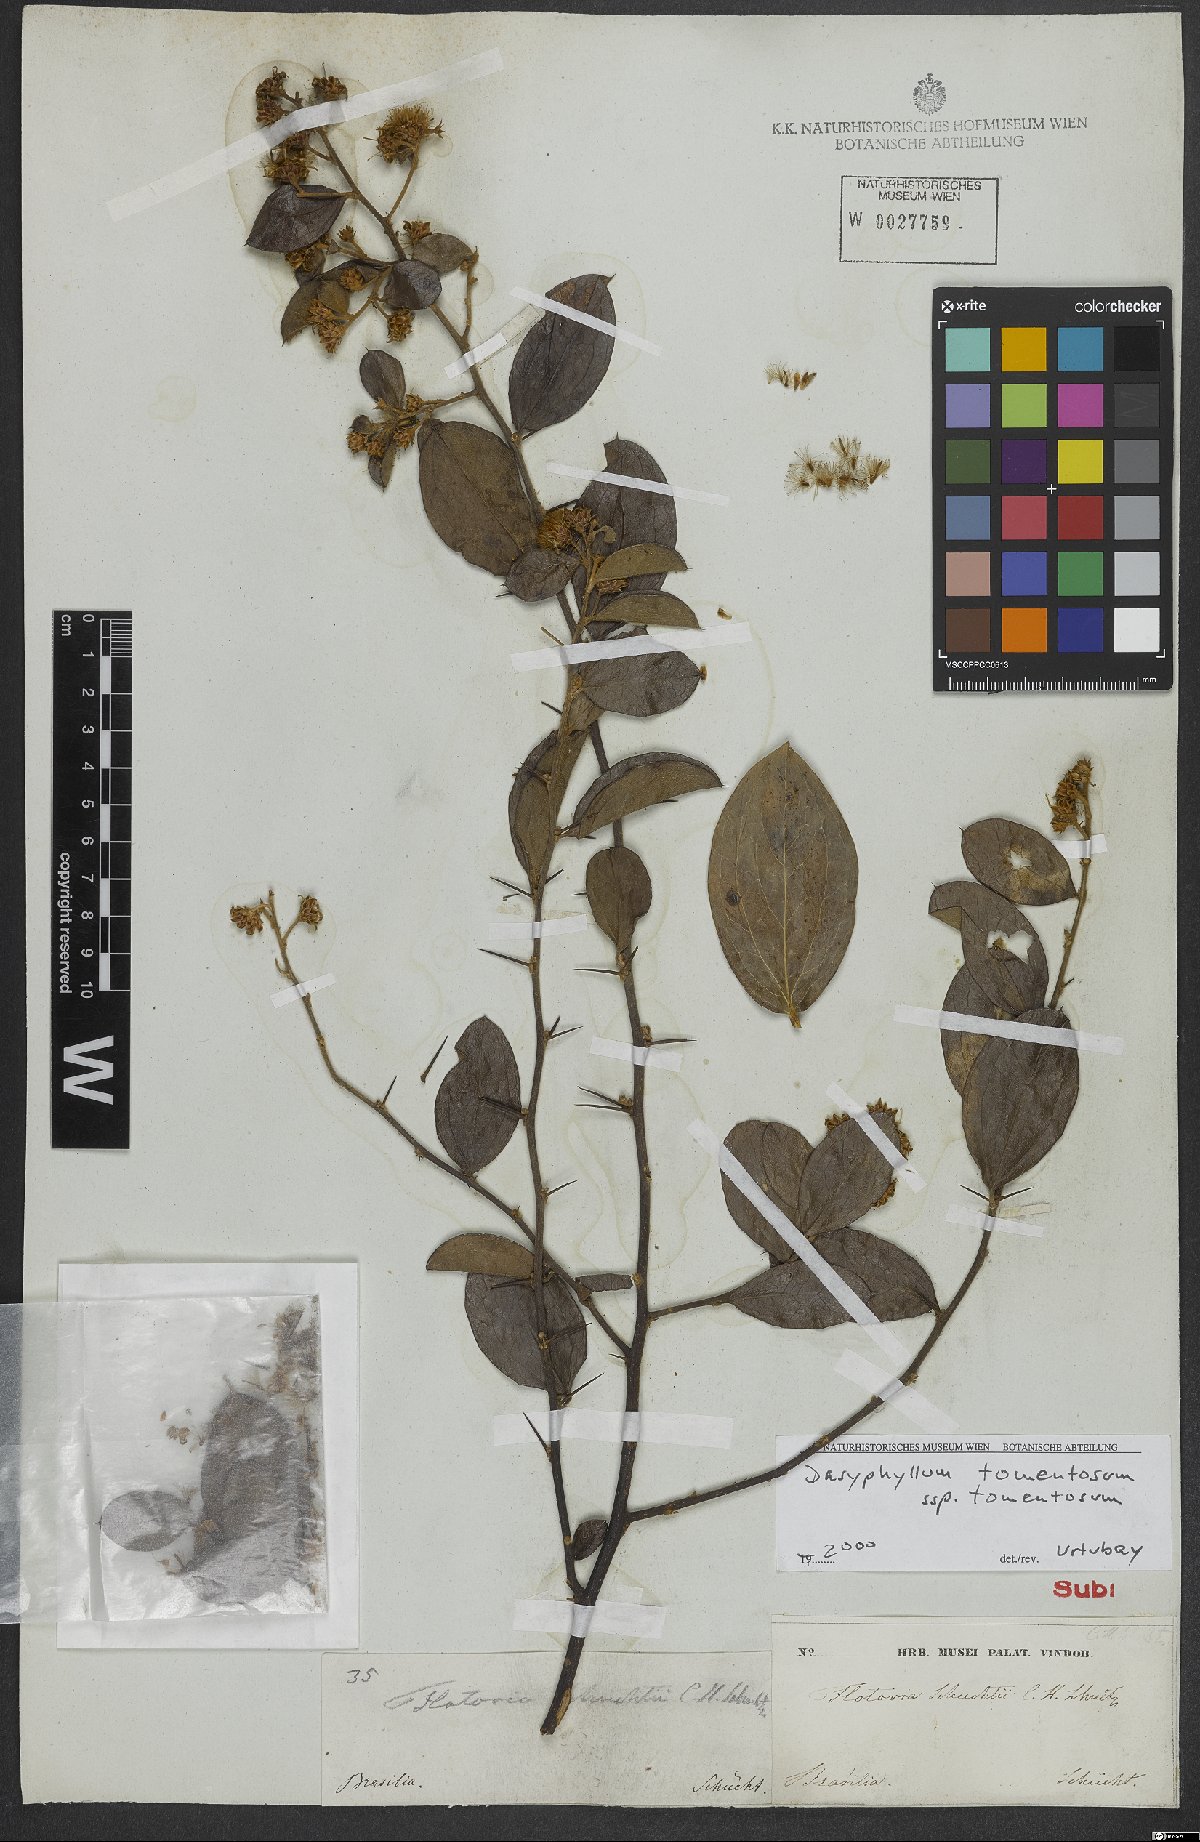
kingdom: Plantae
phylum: Tracheophyta
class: Magnoliopsida
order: Asterales
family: Asteraceae
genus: Dasyphyllum
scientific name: Dasyphyllum tomentosum
